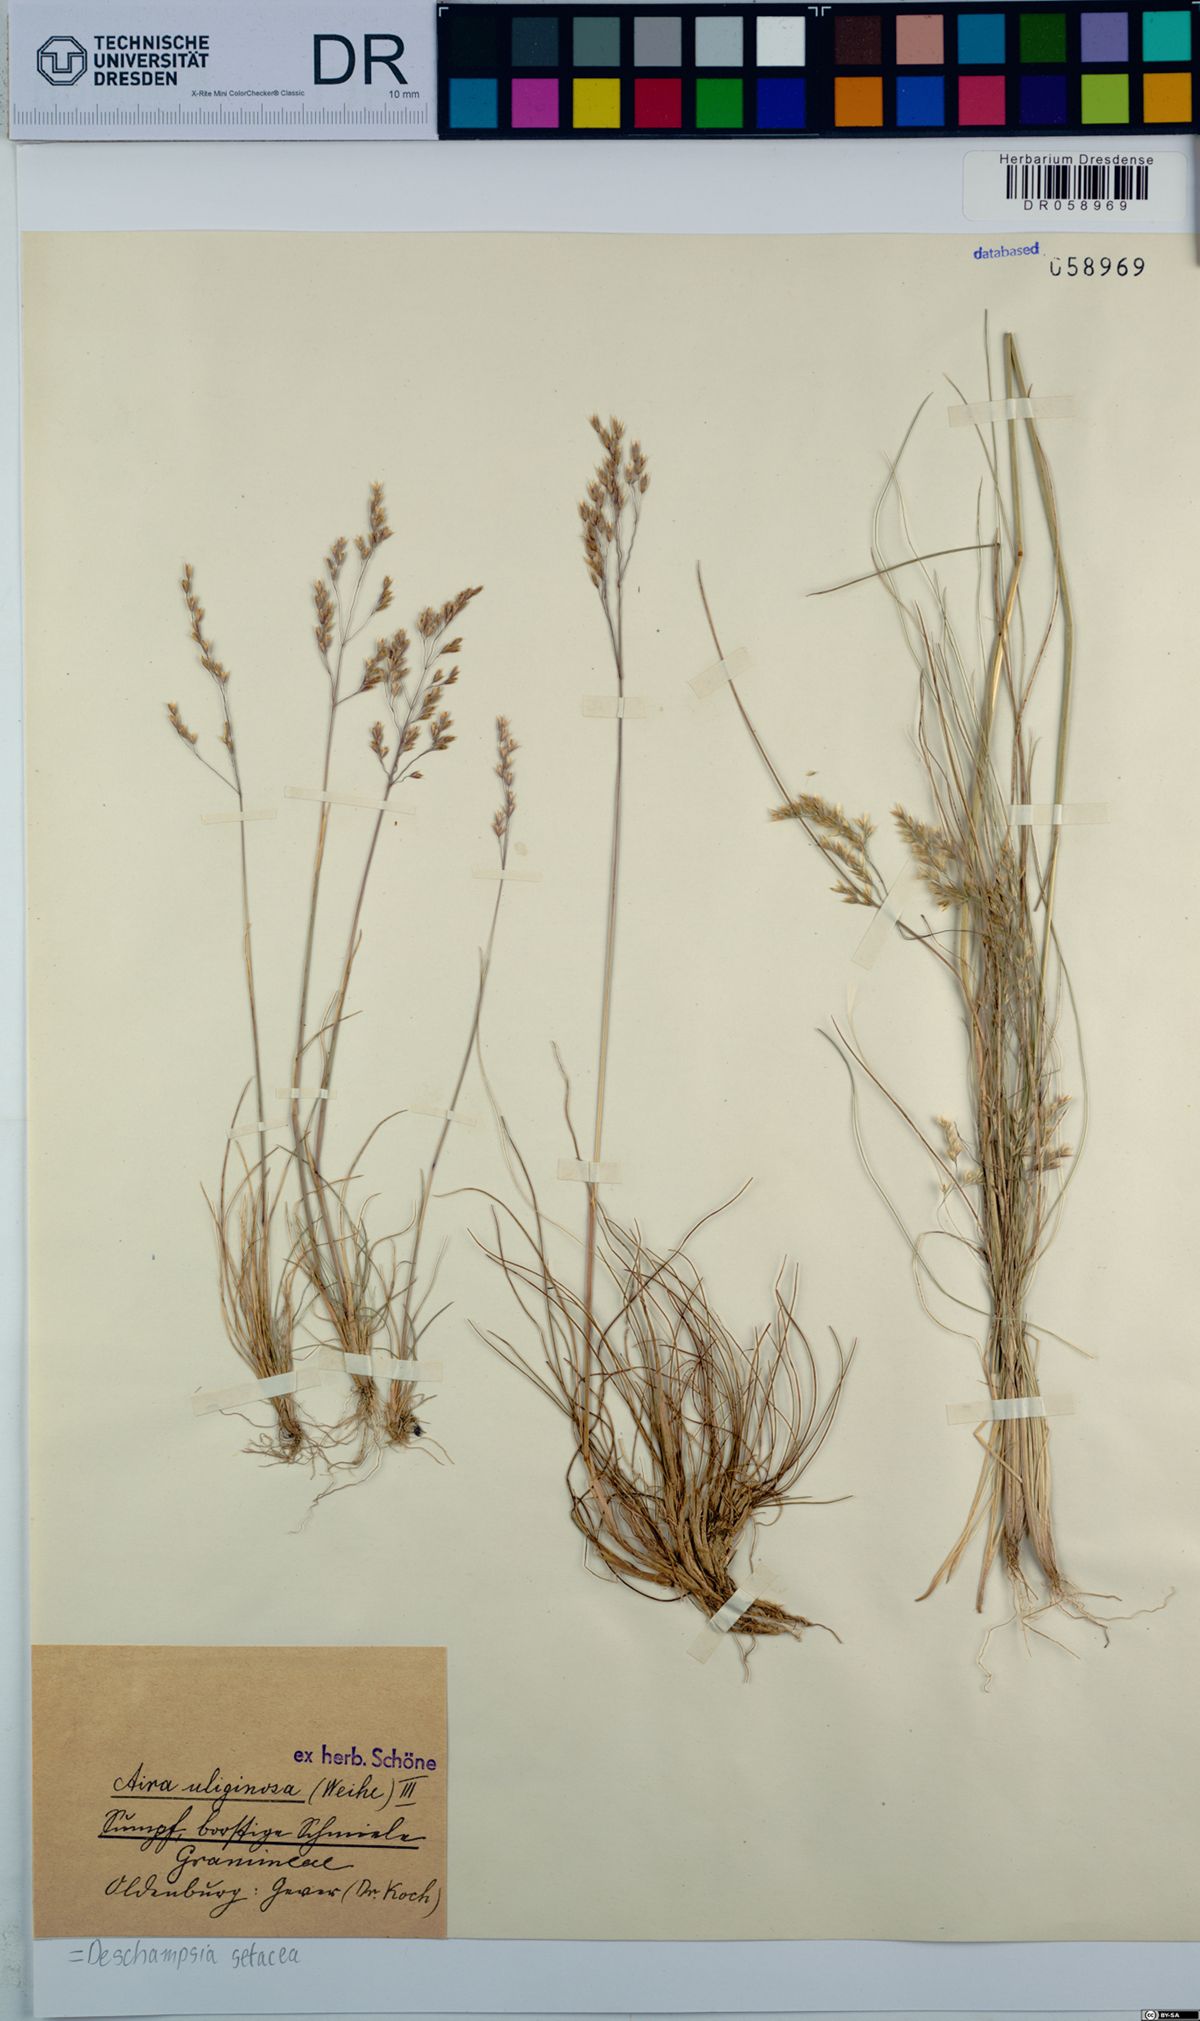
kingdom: Plantae
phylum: Tracheophyta
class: Liliopsida
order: Poales
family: Poaceae
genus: Deschampsia
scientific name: Deschampsia setacea
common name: Bog hair-grass
